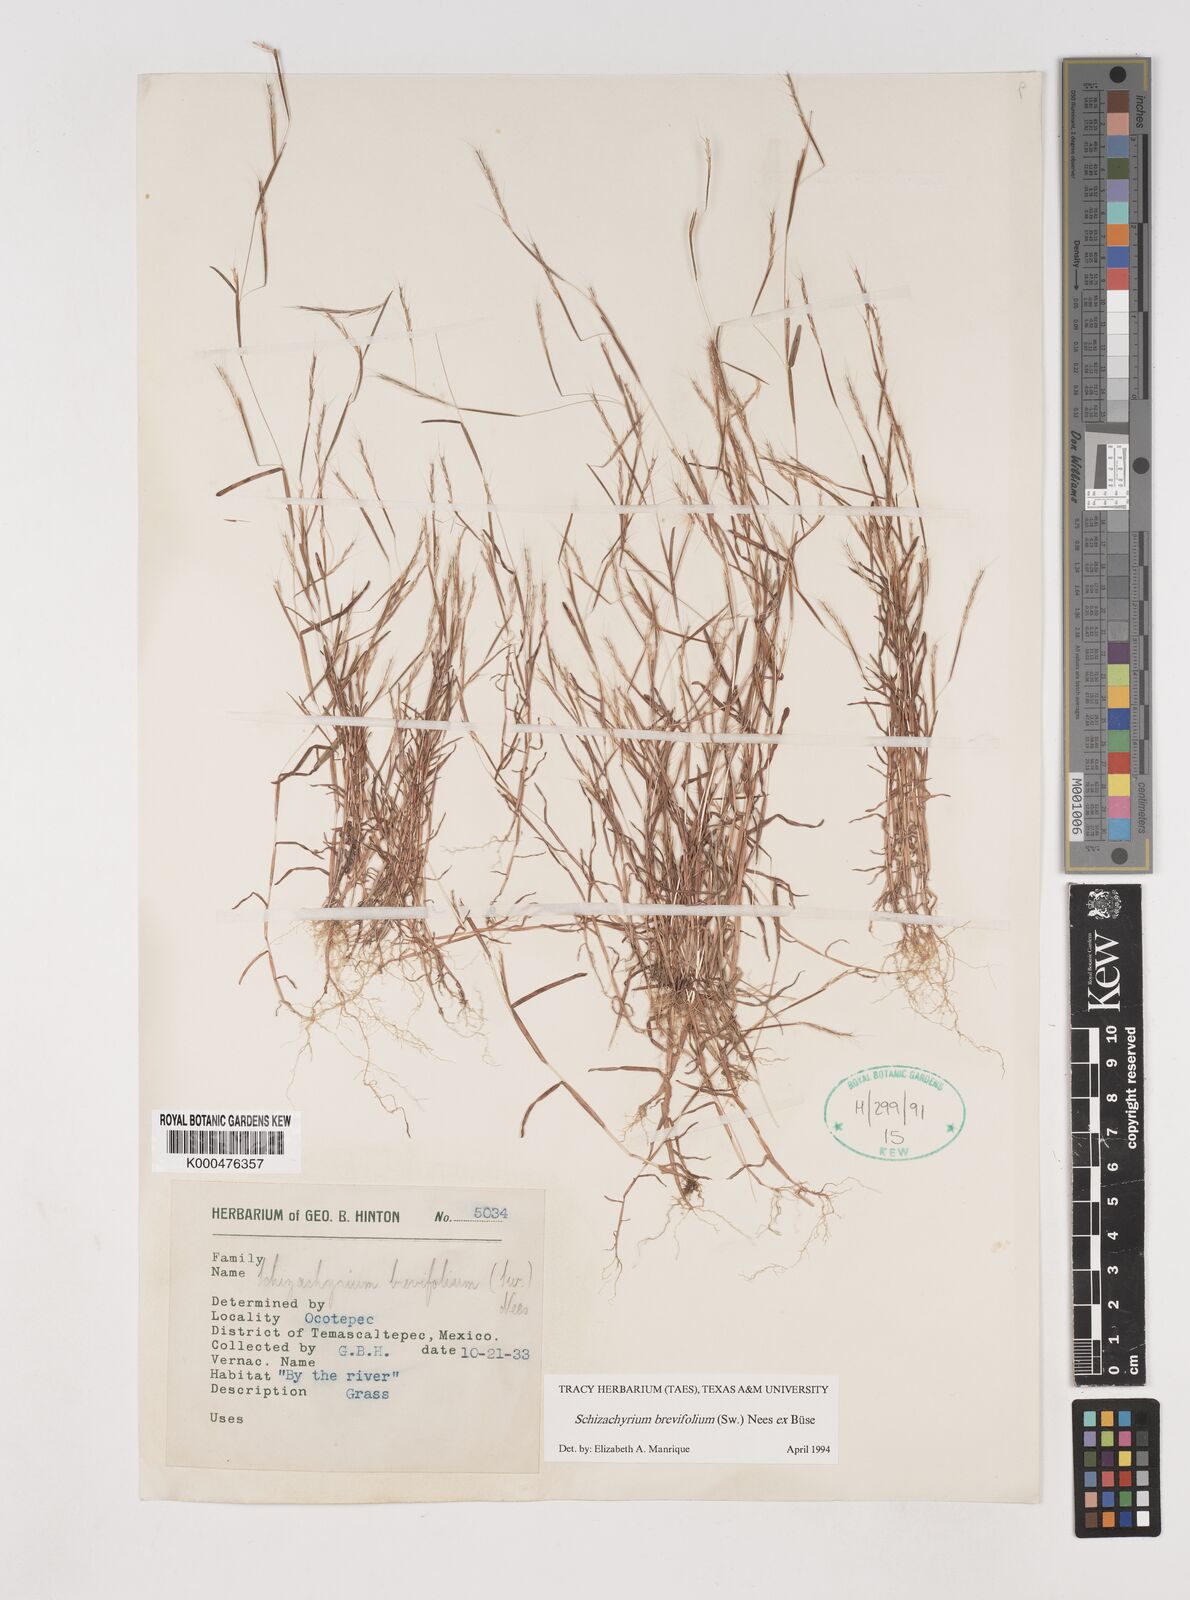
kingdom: Plantae
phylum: Tracheophyta
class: Liliopsida
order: Poales
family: Poaceae
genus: Schizachyrium
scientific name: Schizachyrium
